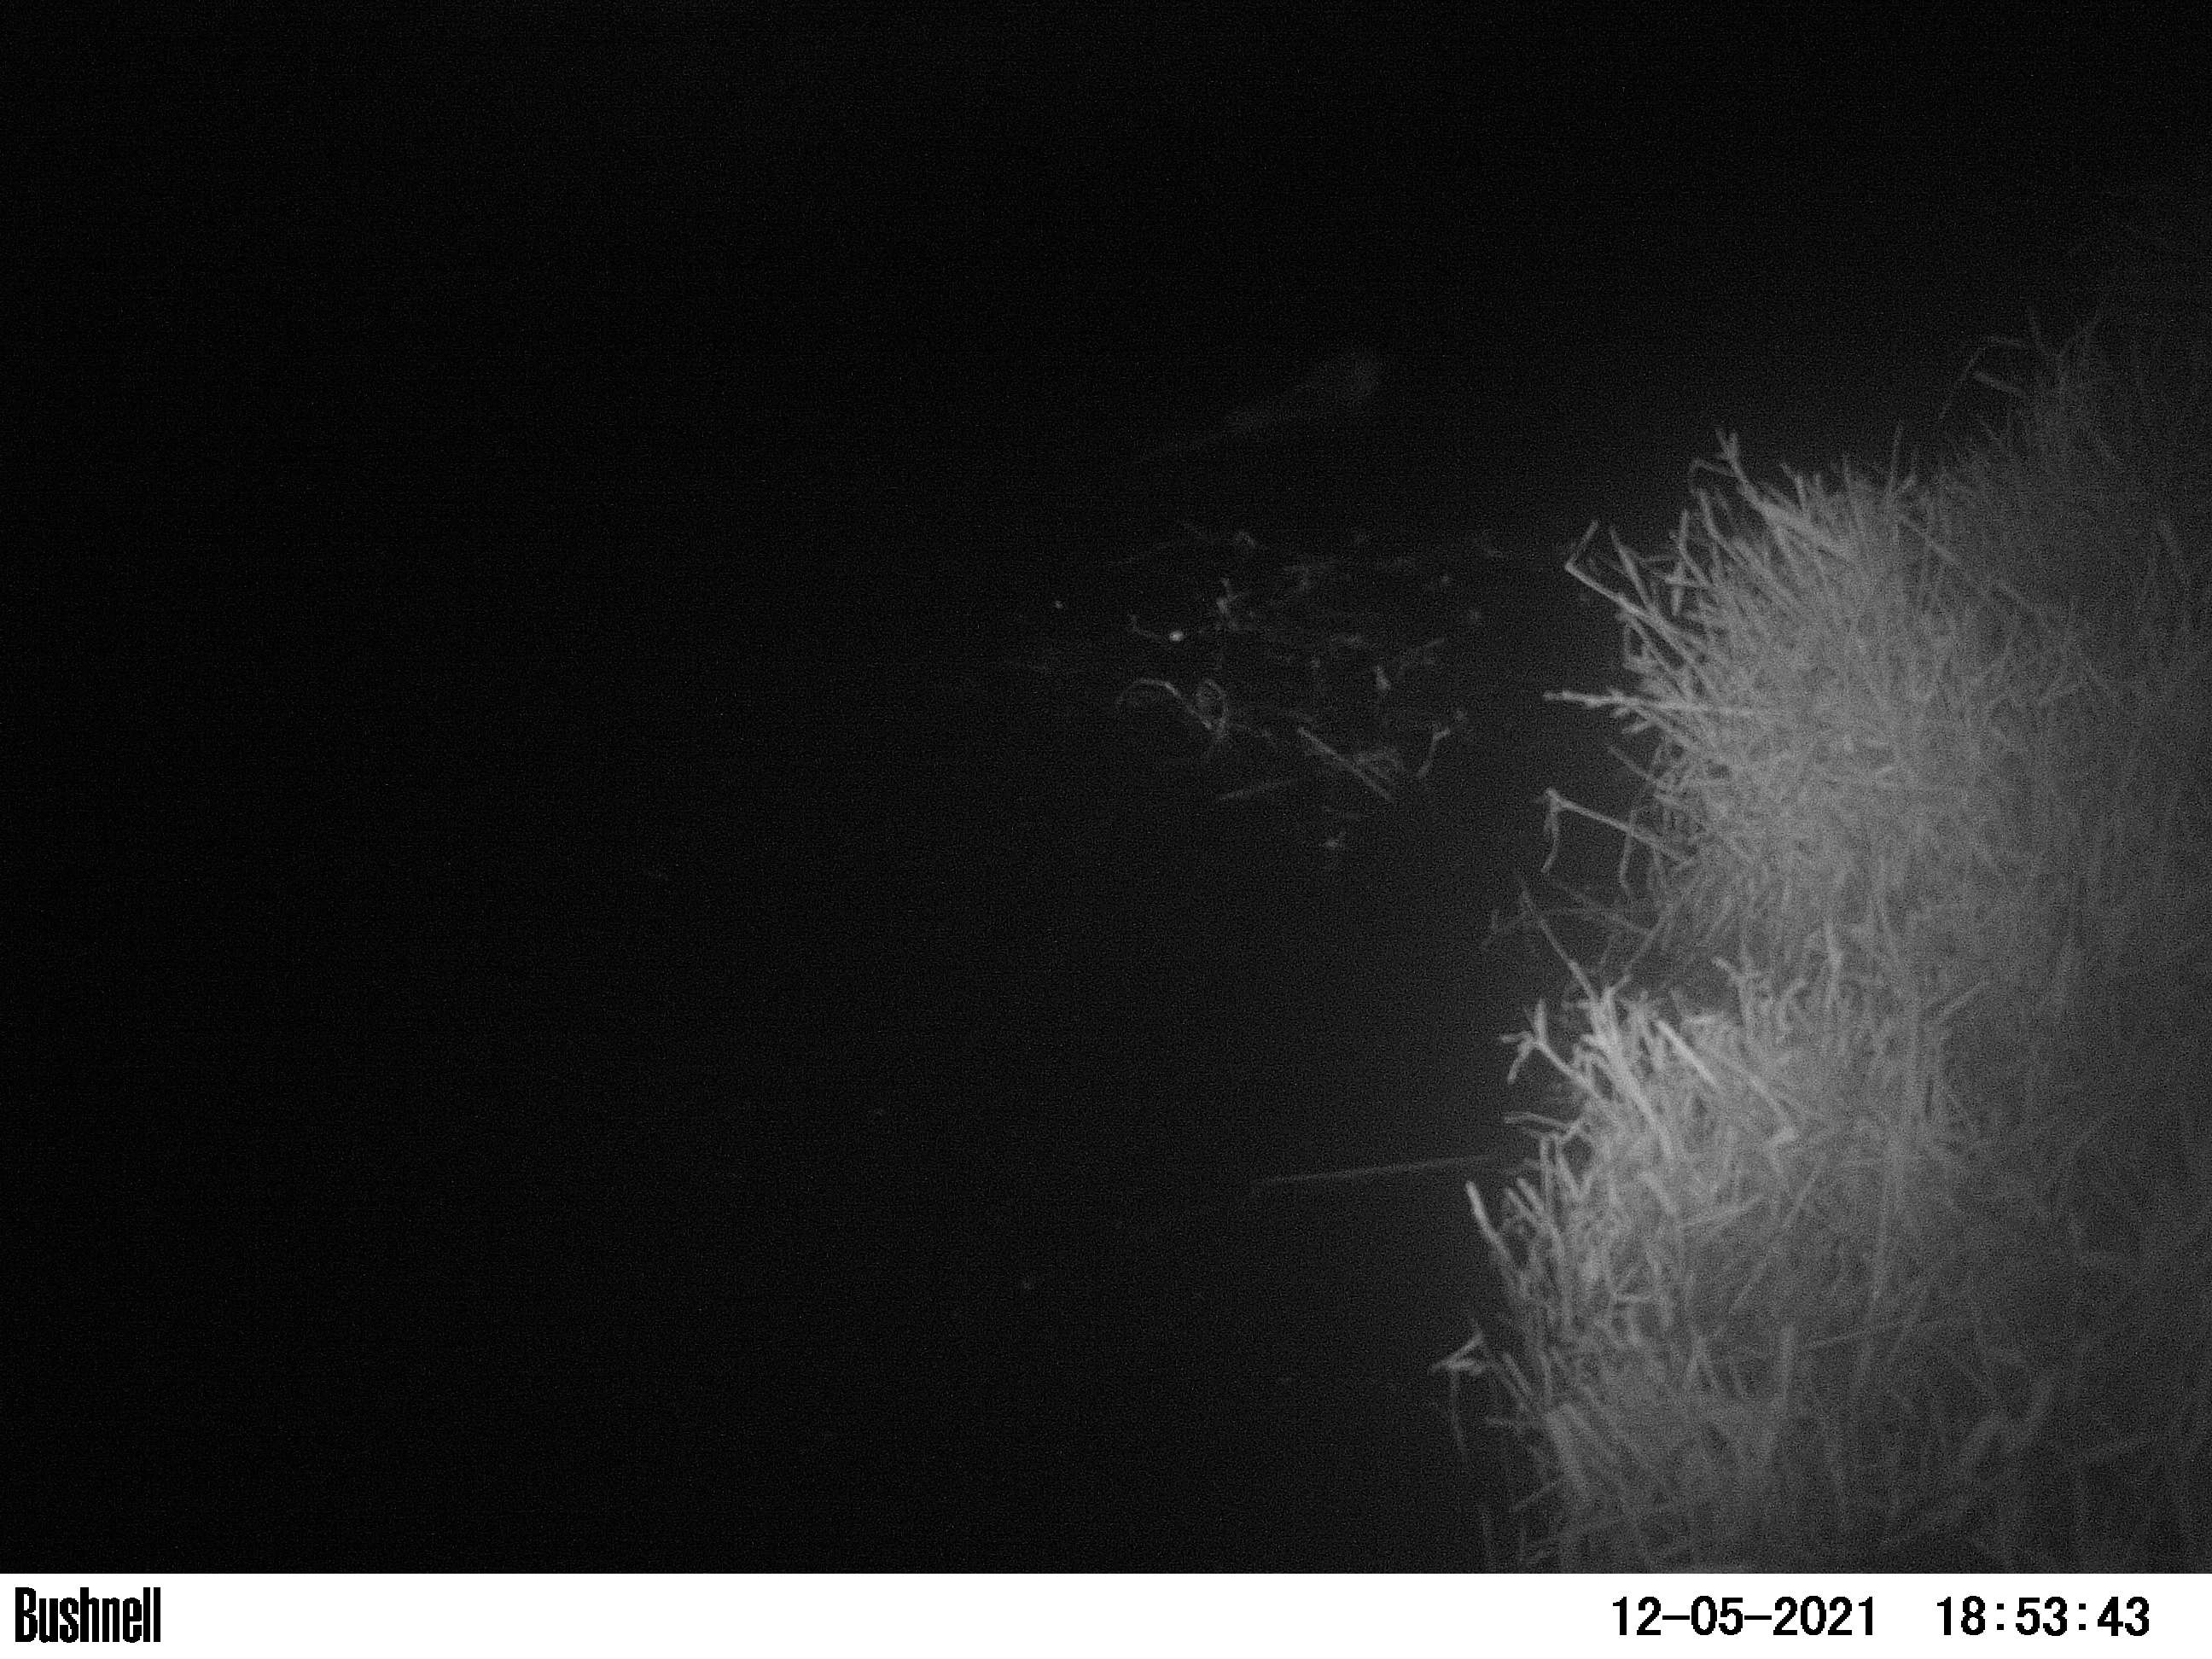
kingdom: Animalia
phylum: Chordata
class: Mammalia
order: Rodentia
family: Muridae
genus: Rattus
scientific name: Rattus norvegicus
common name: Brown rat
